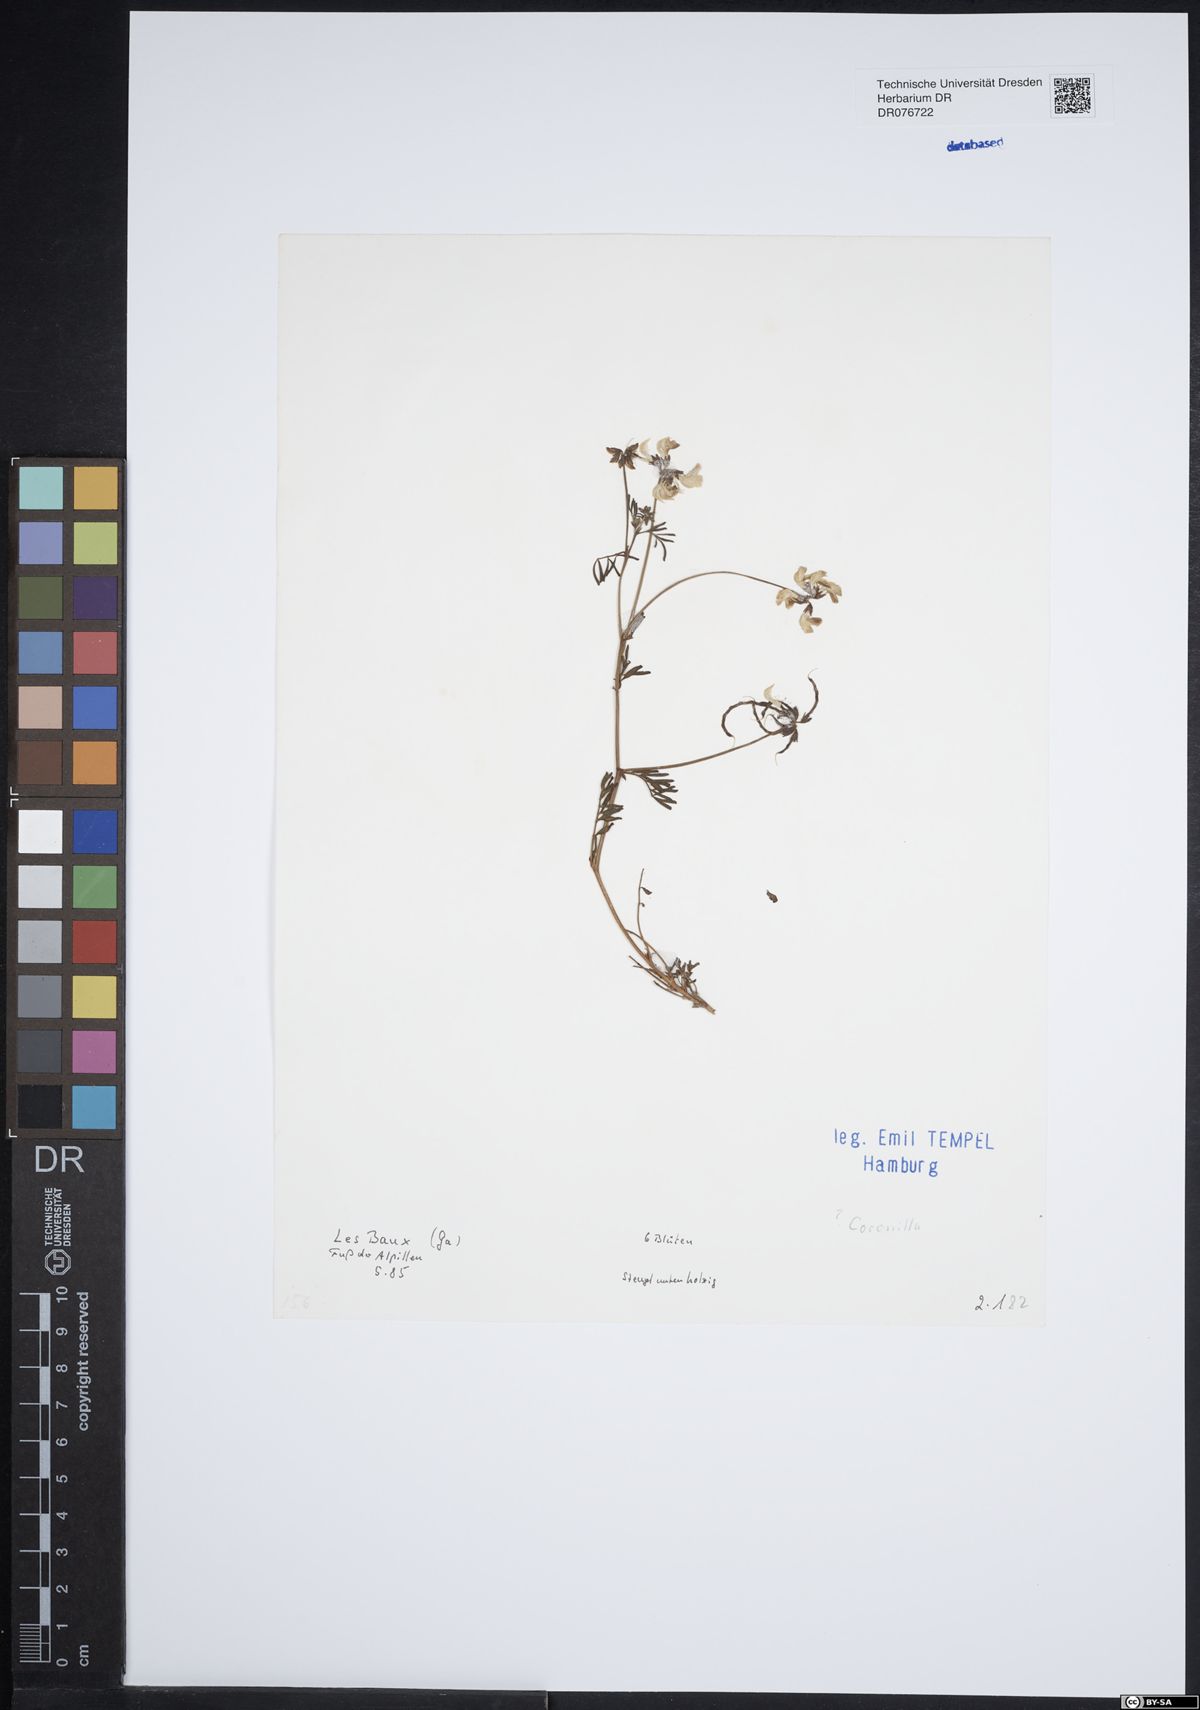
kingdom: Plantae
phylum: Tracheophyta
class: Magnoliopsida
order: Fabales
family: Fabaceae
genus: Coronilla
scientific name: Coronilla
